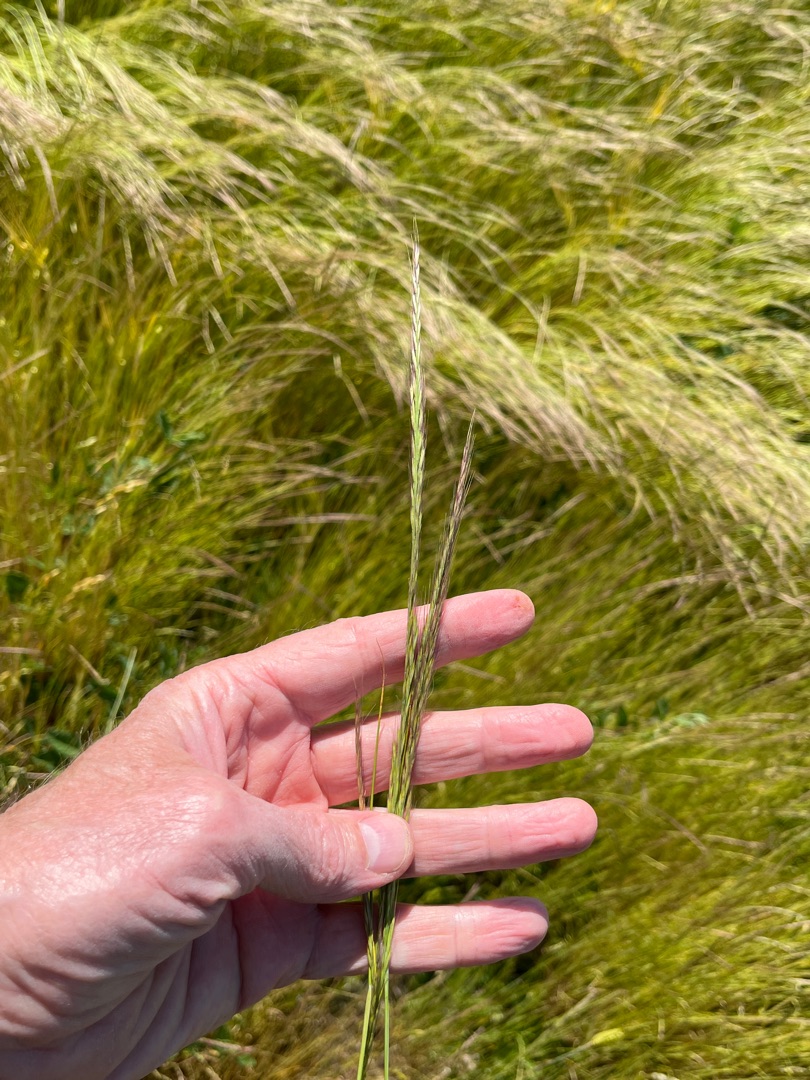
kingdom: Plantae
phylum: Tracheophyta
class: Liliopsida
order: Poales
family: Poaceae
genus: Festuca
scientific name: Festuca myuros
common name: Stor væselhale
